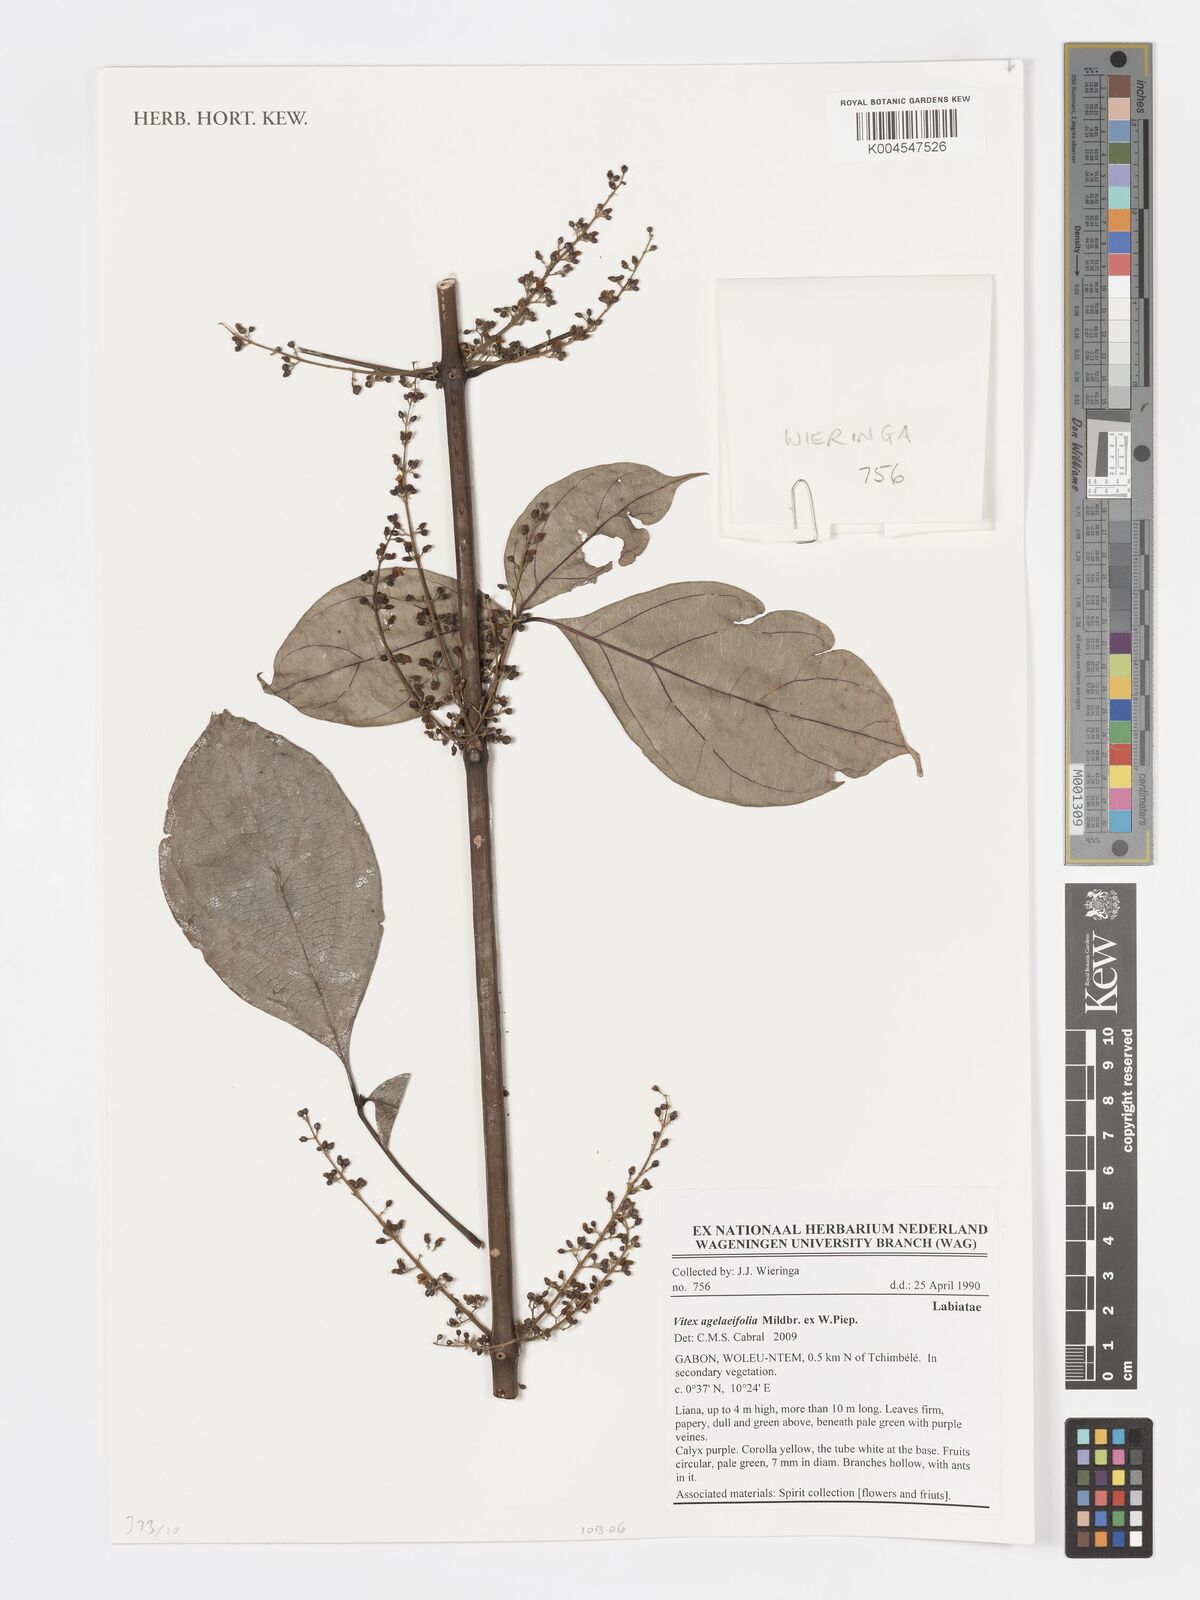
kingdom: Plantae
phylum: Tracheophyta
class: Magnoliopsida
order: Lamiales
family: Lamiaceae
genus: Vitex
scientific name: Vitex agelaeifolia
